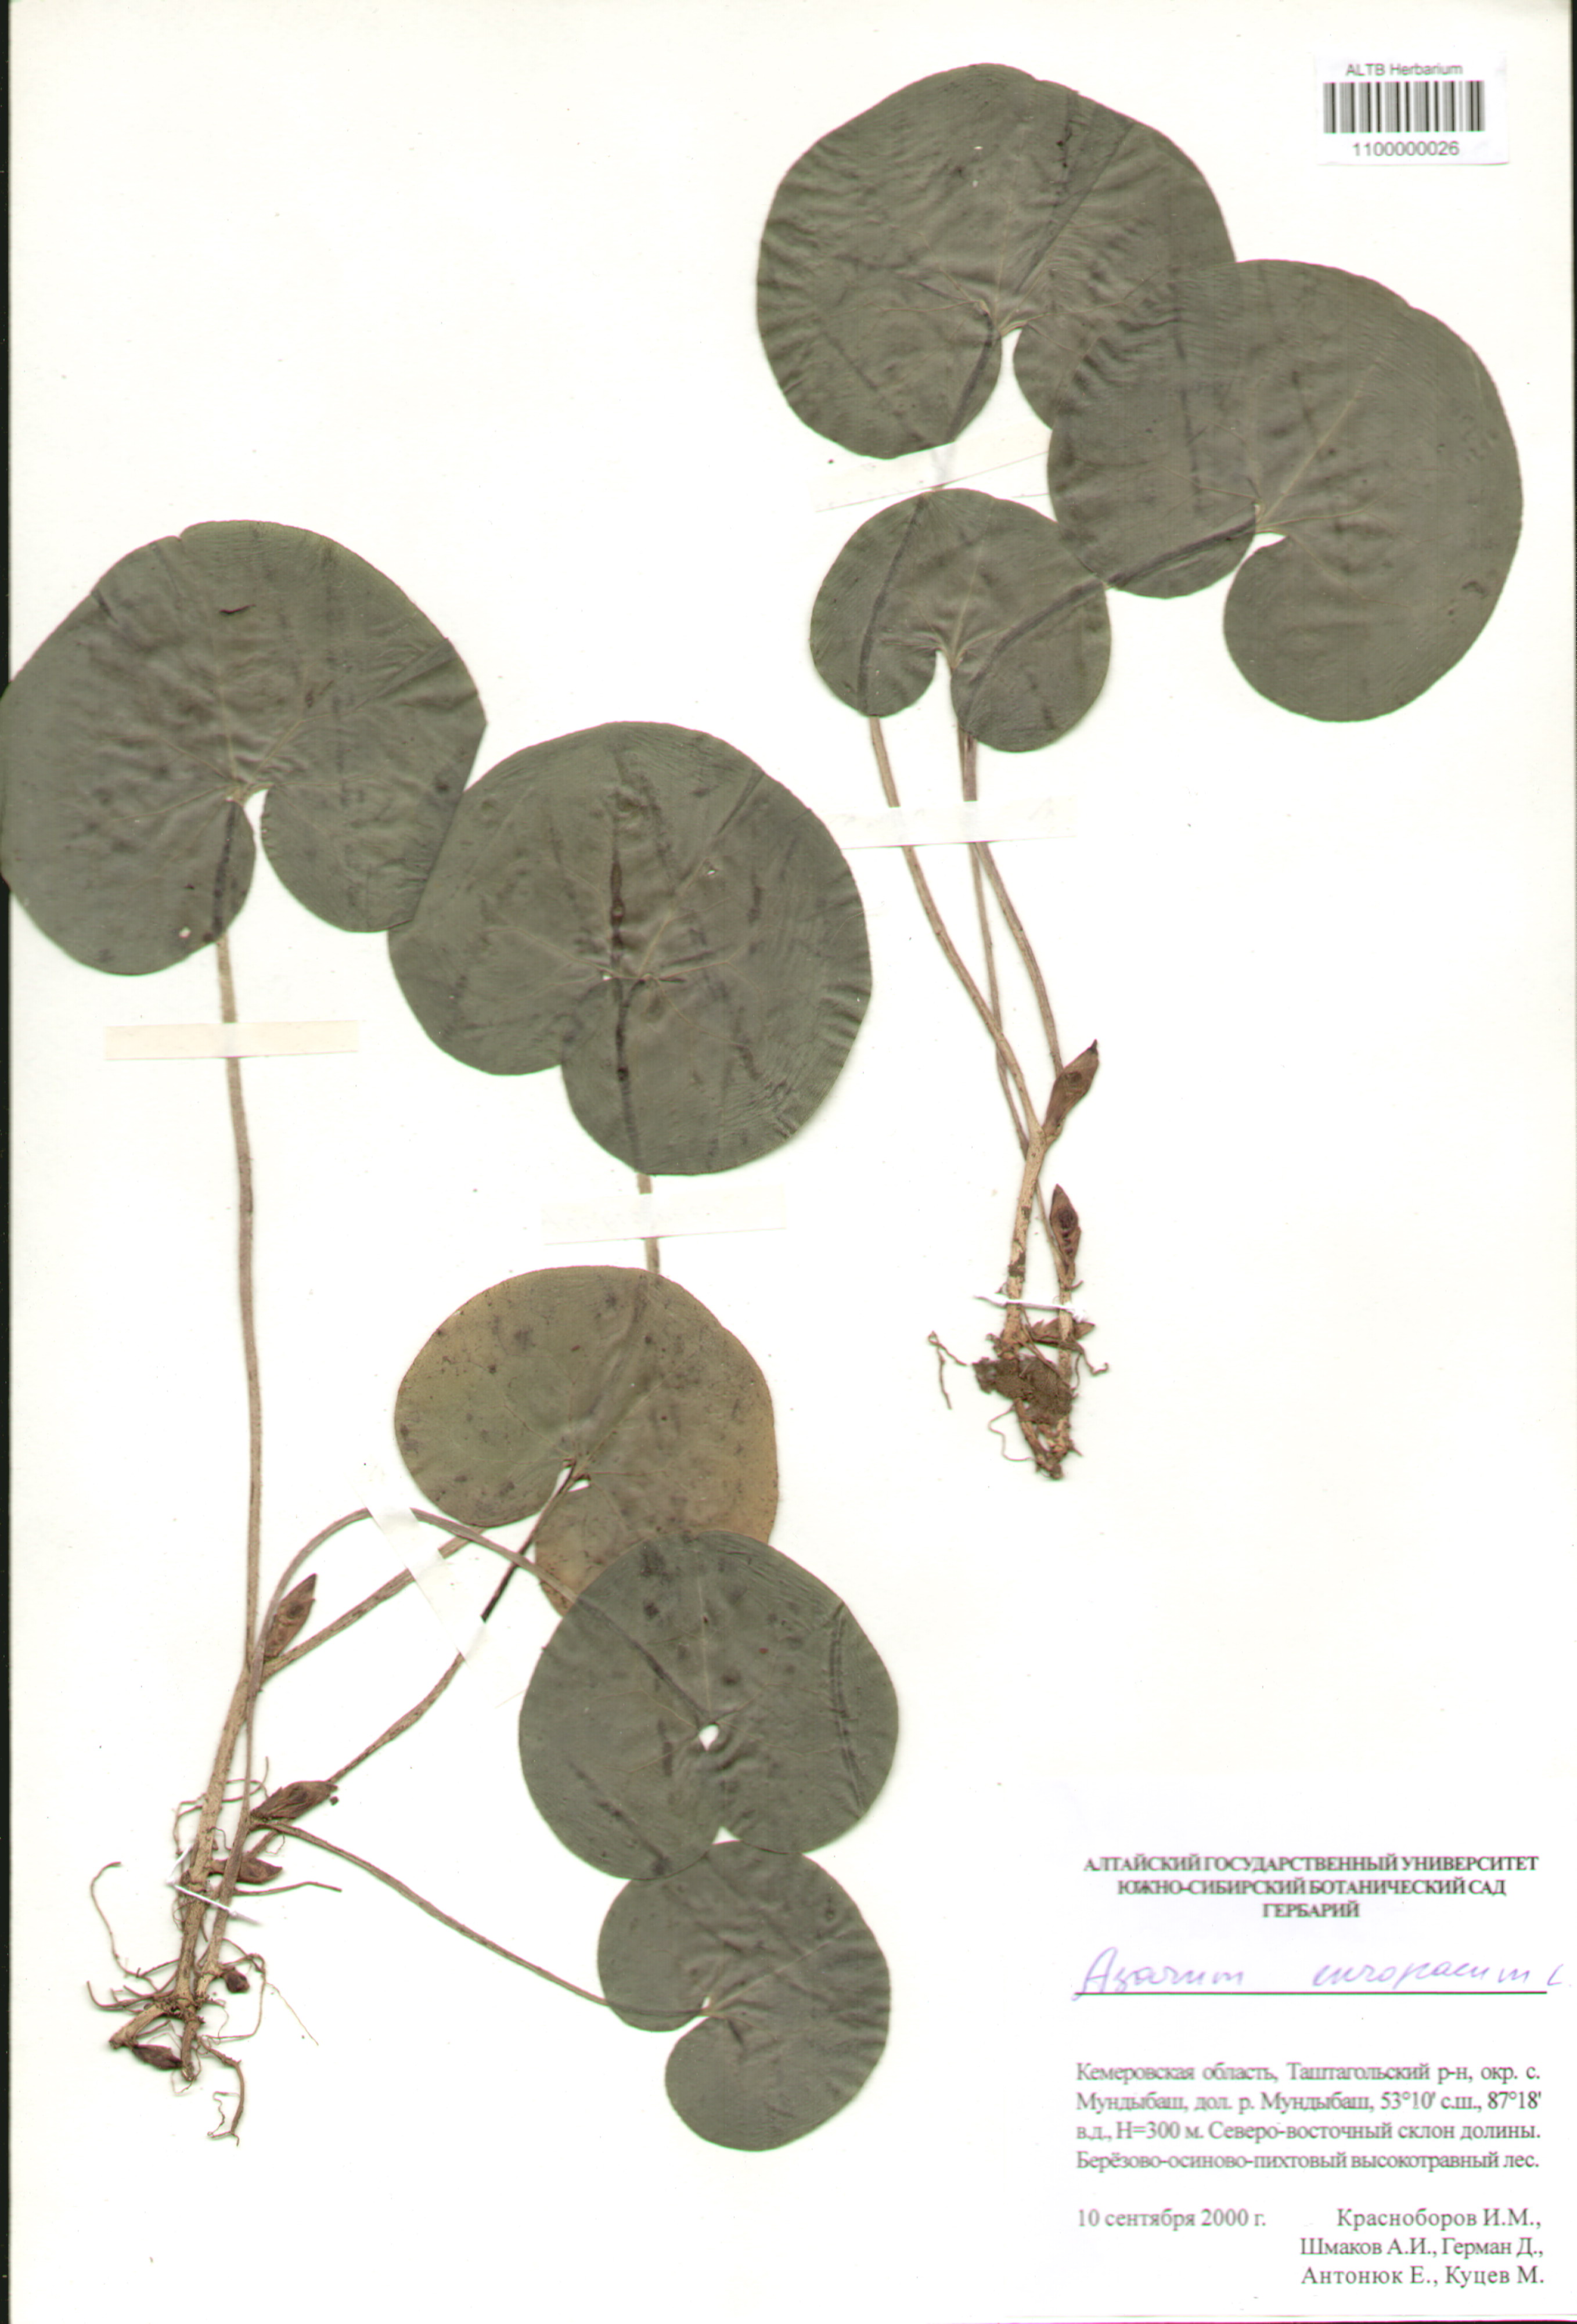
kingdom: Plantae
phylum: Tracheophyta
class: Magnoliopsida
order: Piperales
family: Aristolochiaceae
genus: Asarum
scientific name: Asarum europaeum
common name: Asarabacca
